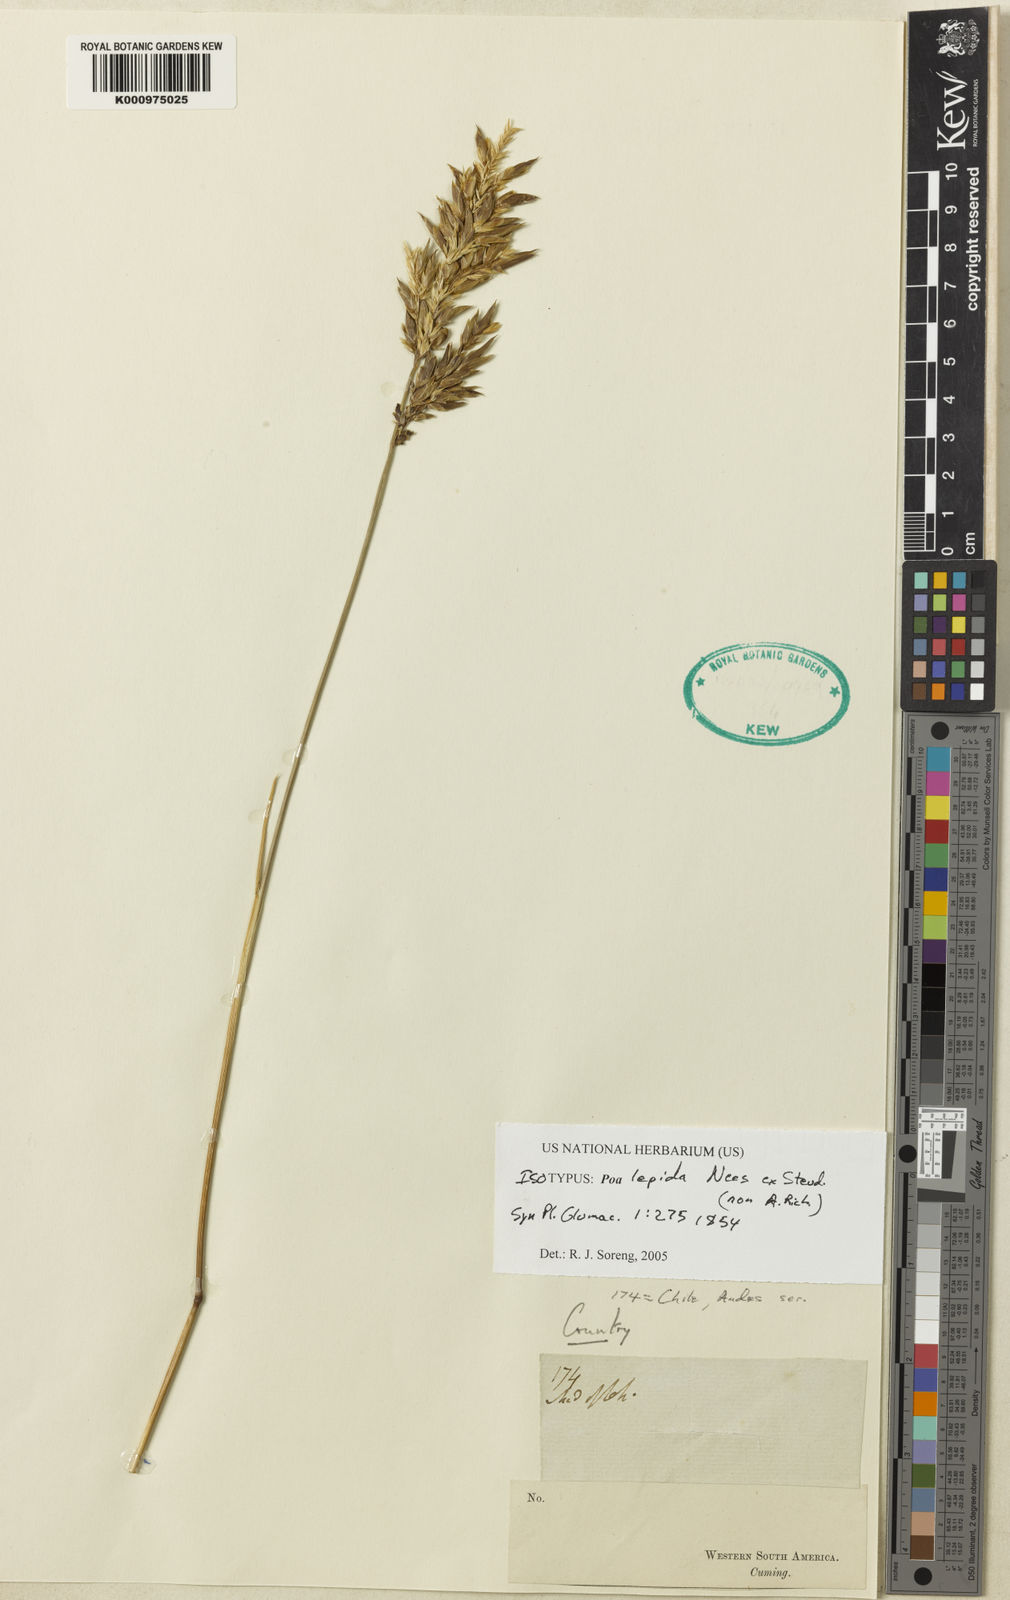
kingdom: Plantae
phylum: Tracheophyta
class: Liliopsida
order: Poales
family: Poaceae
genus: Poa
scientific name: Poa denudata
